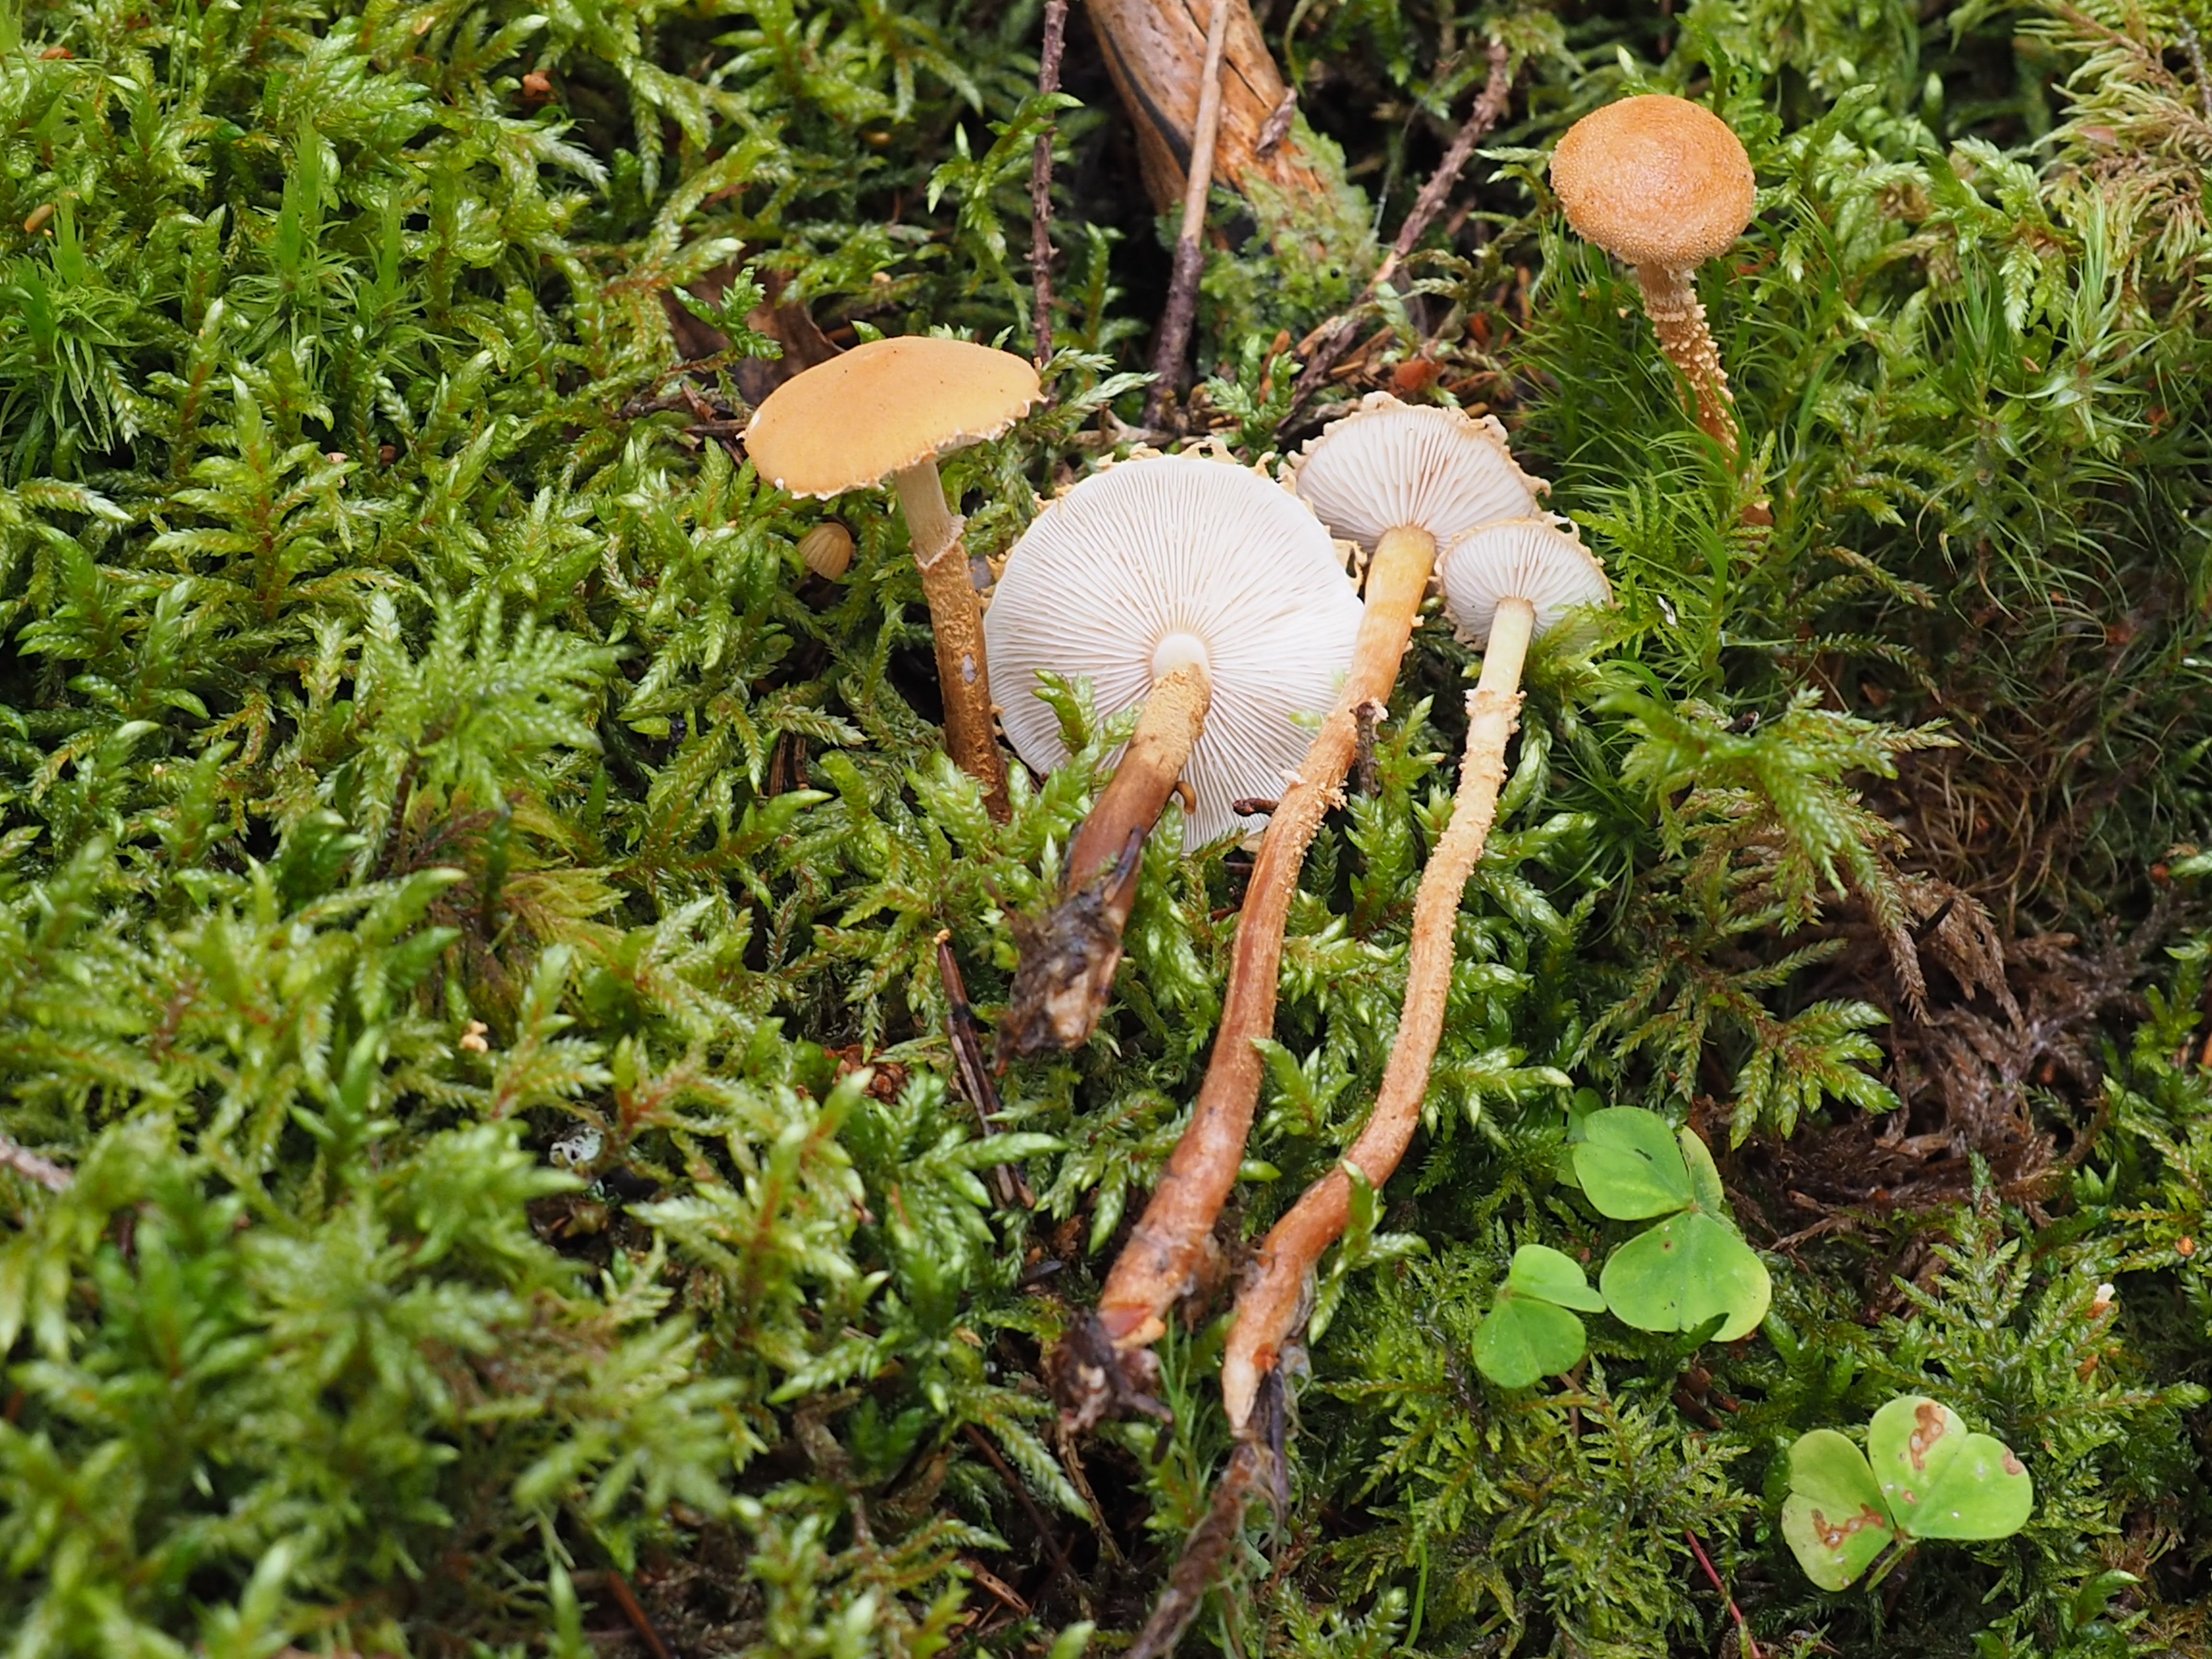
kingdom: Fungi
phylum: Basidiomycota
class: Agaricomycetes
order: Agaricales
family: Tricholomataceae
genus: Cystoderma
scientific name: Cystoderma jasonis
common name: Pine powdercap
